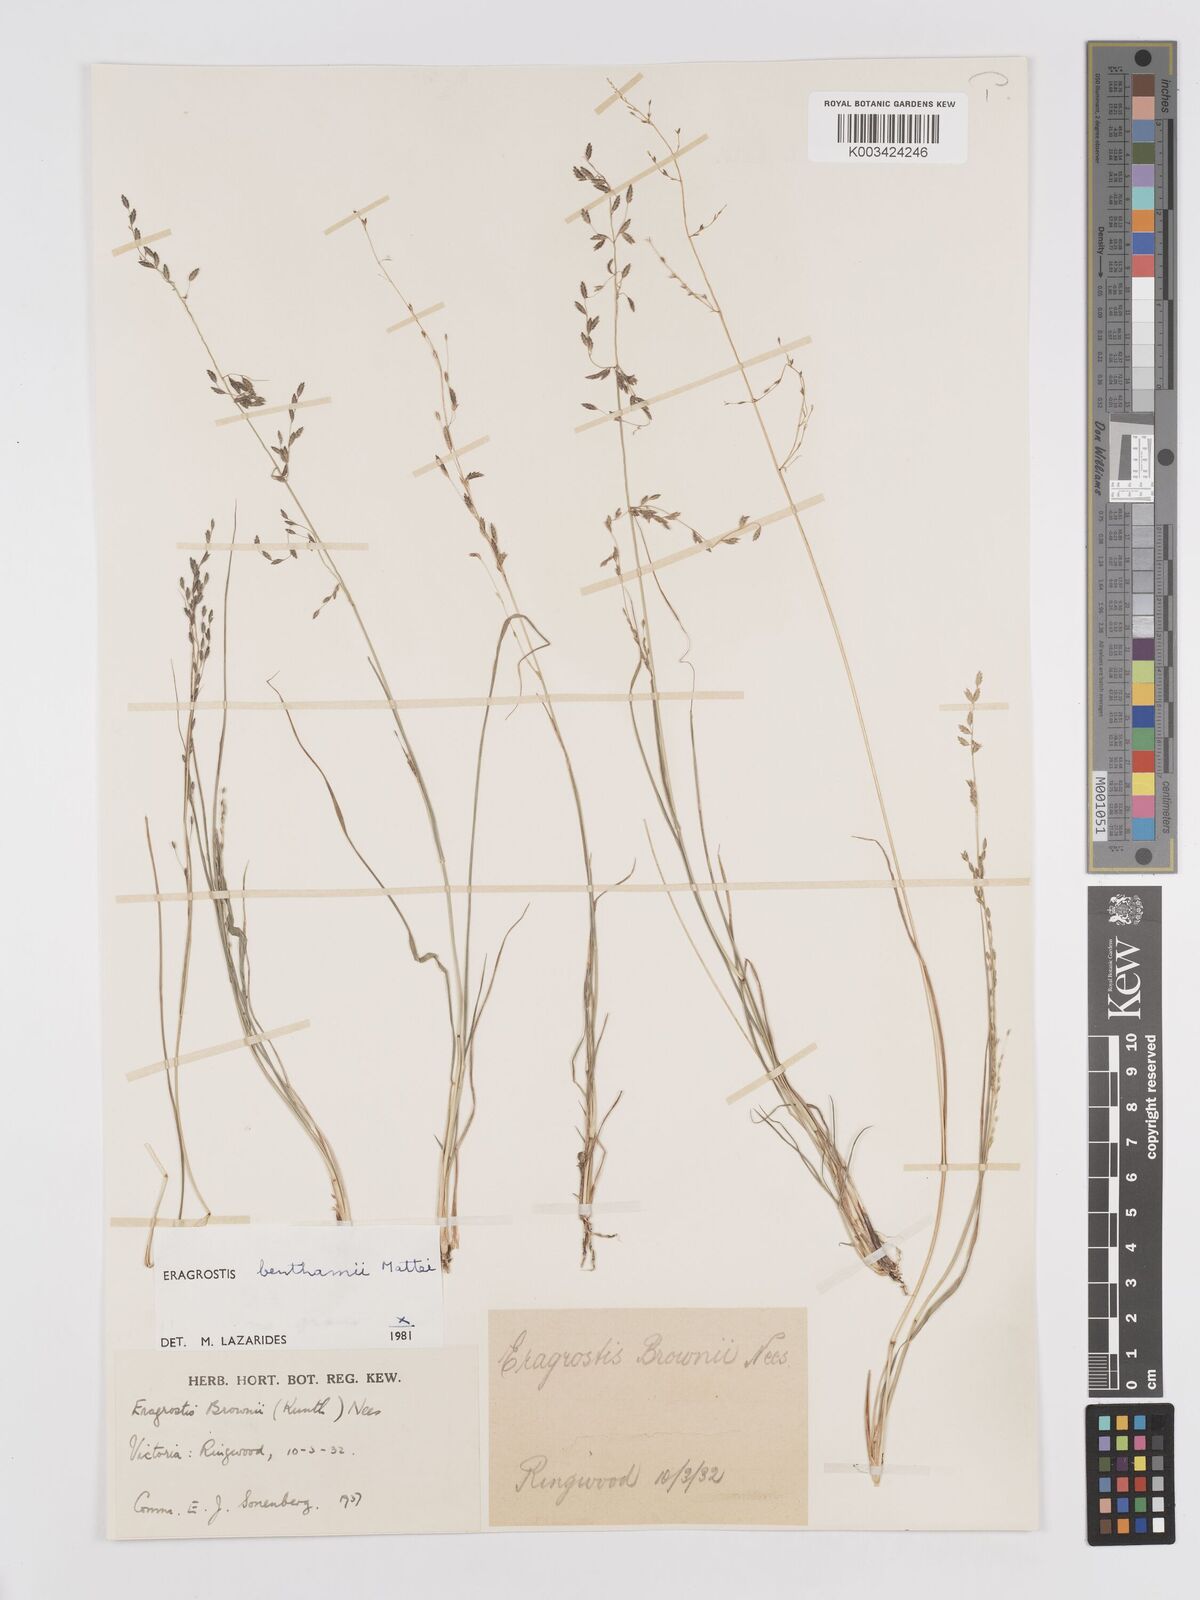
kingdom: Plantae
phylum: Tracheophyta
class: Liliopsida
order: Poales
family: Poaceae
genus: Eragrostis
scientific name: Eragrostis brownii
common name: Lovegrass
